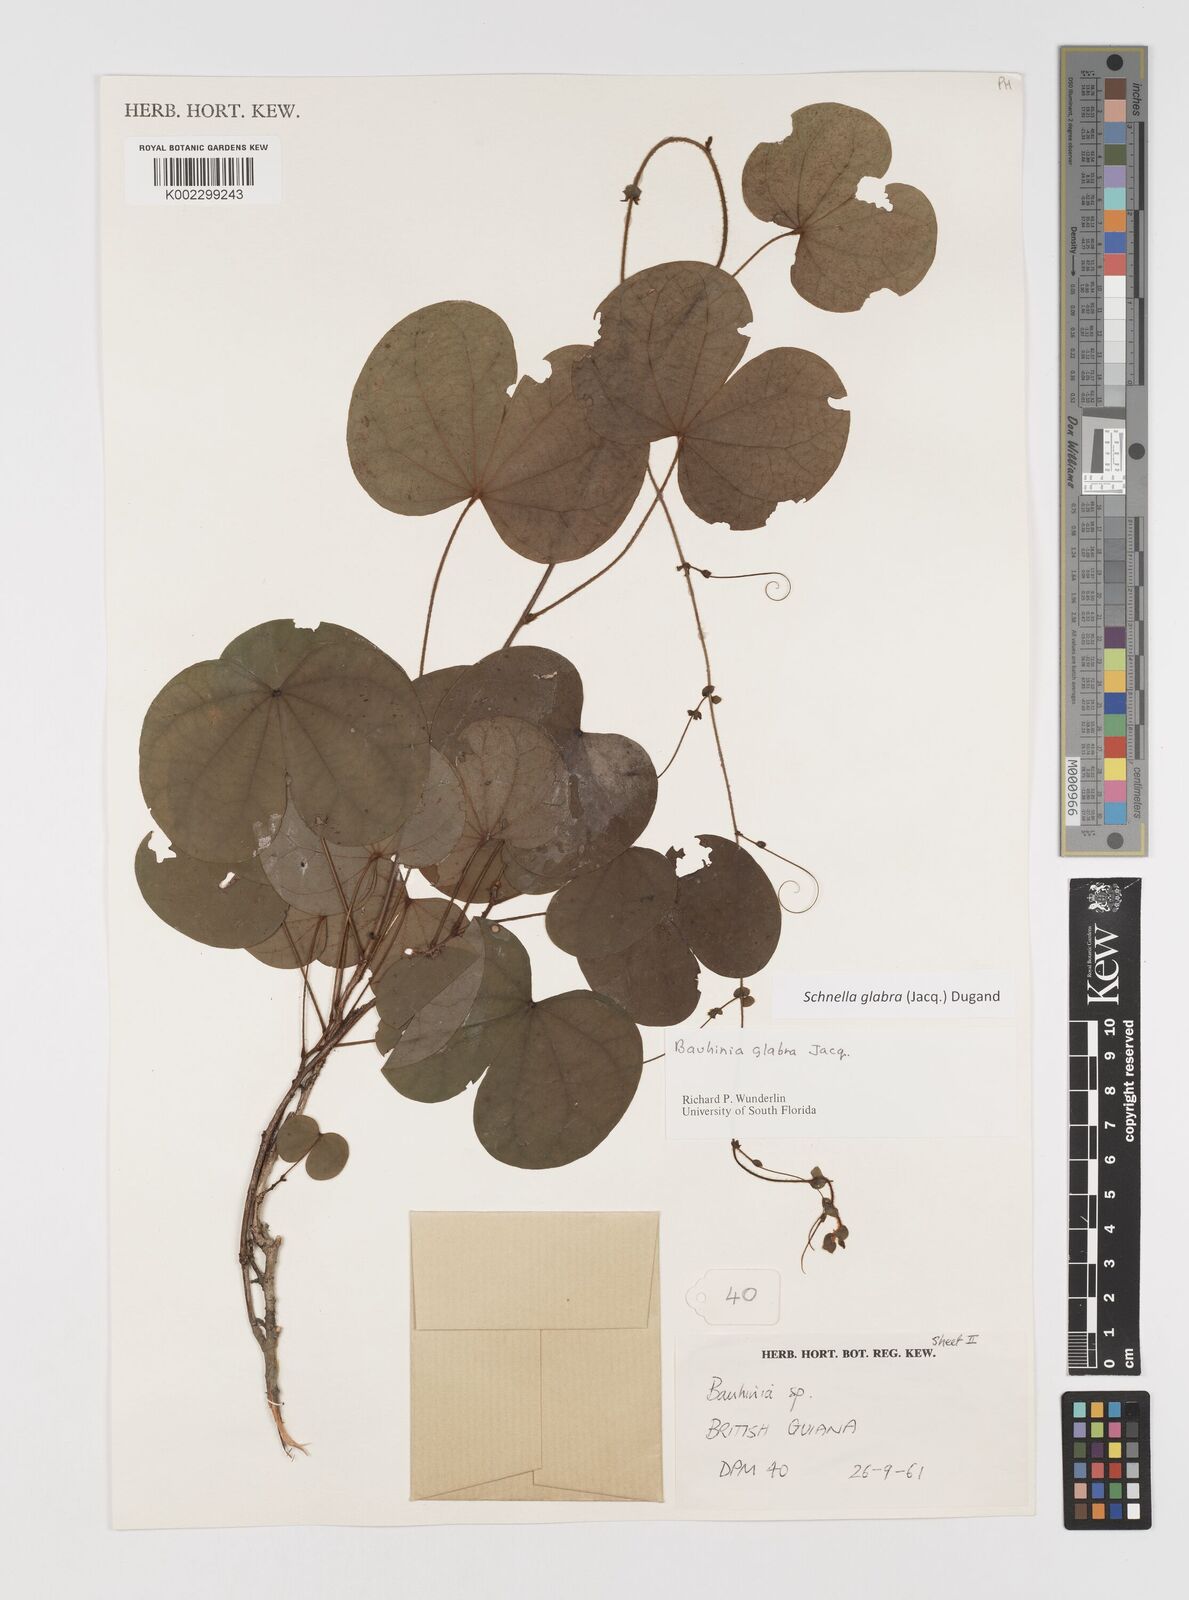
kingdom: Plantae
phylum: Tracheophyta
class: Magnoliopsida
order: Fabales
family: Fabaceae
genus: Schnella
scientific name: Schnella glabra
